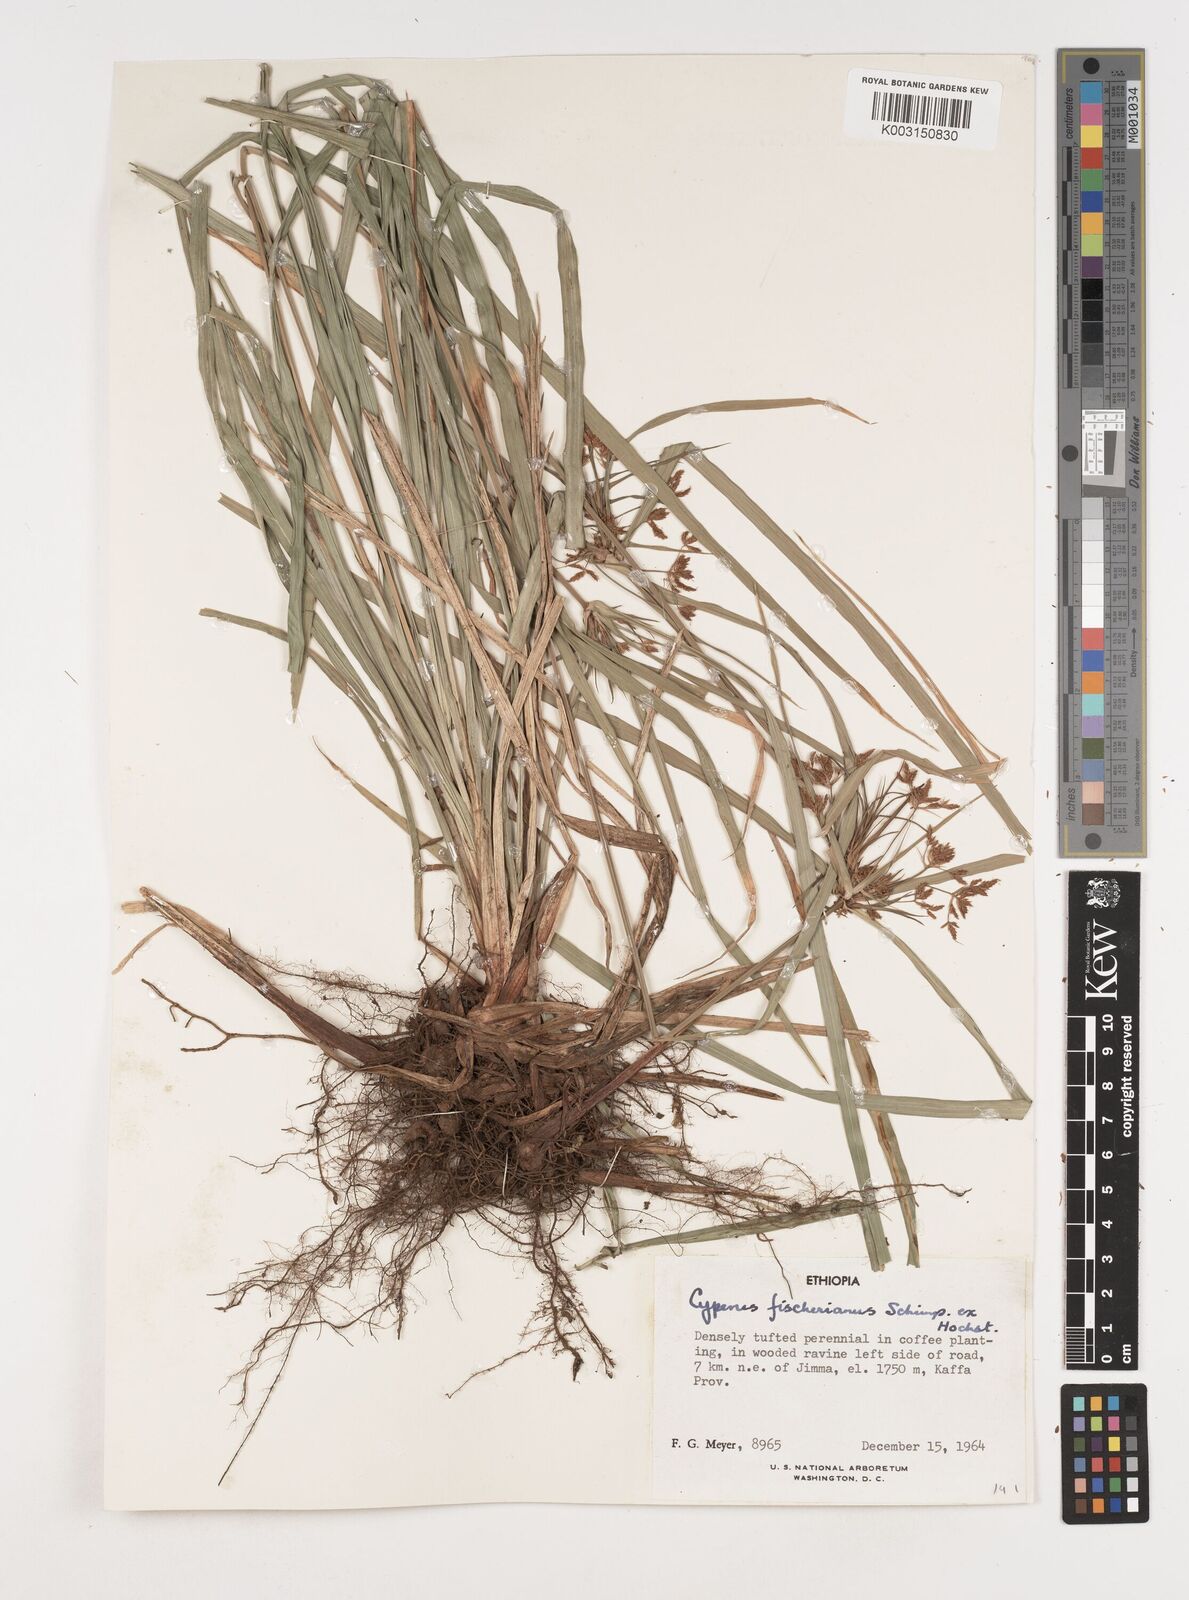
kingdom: Plantae
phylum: Tracheophyta
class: Liliopsida
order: Poales
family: Cyperaceae
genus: Cyperus
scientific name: Cyperus fischerianus
